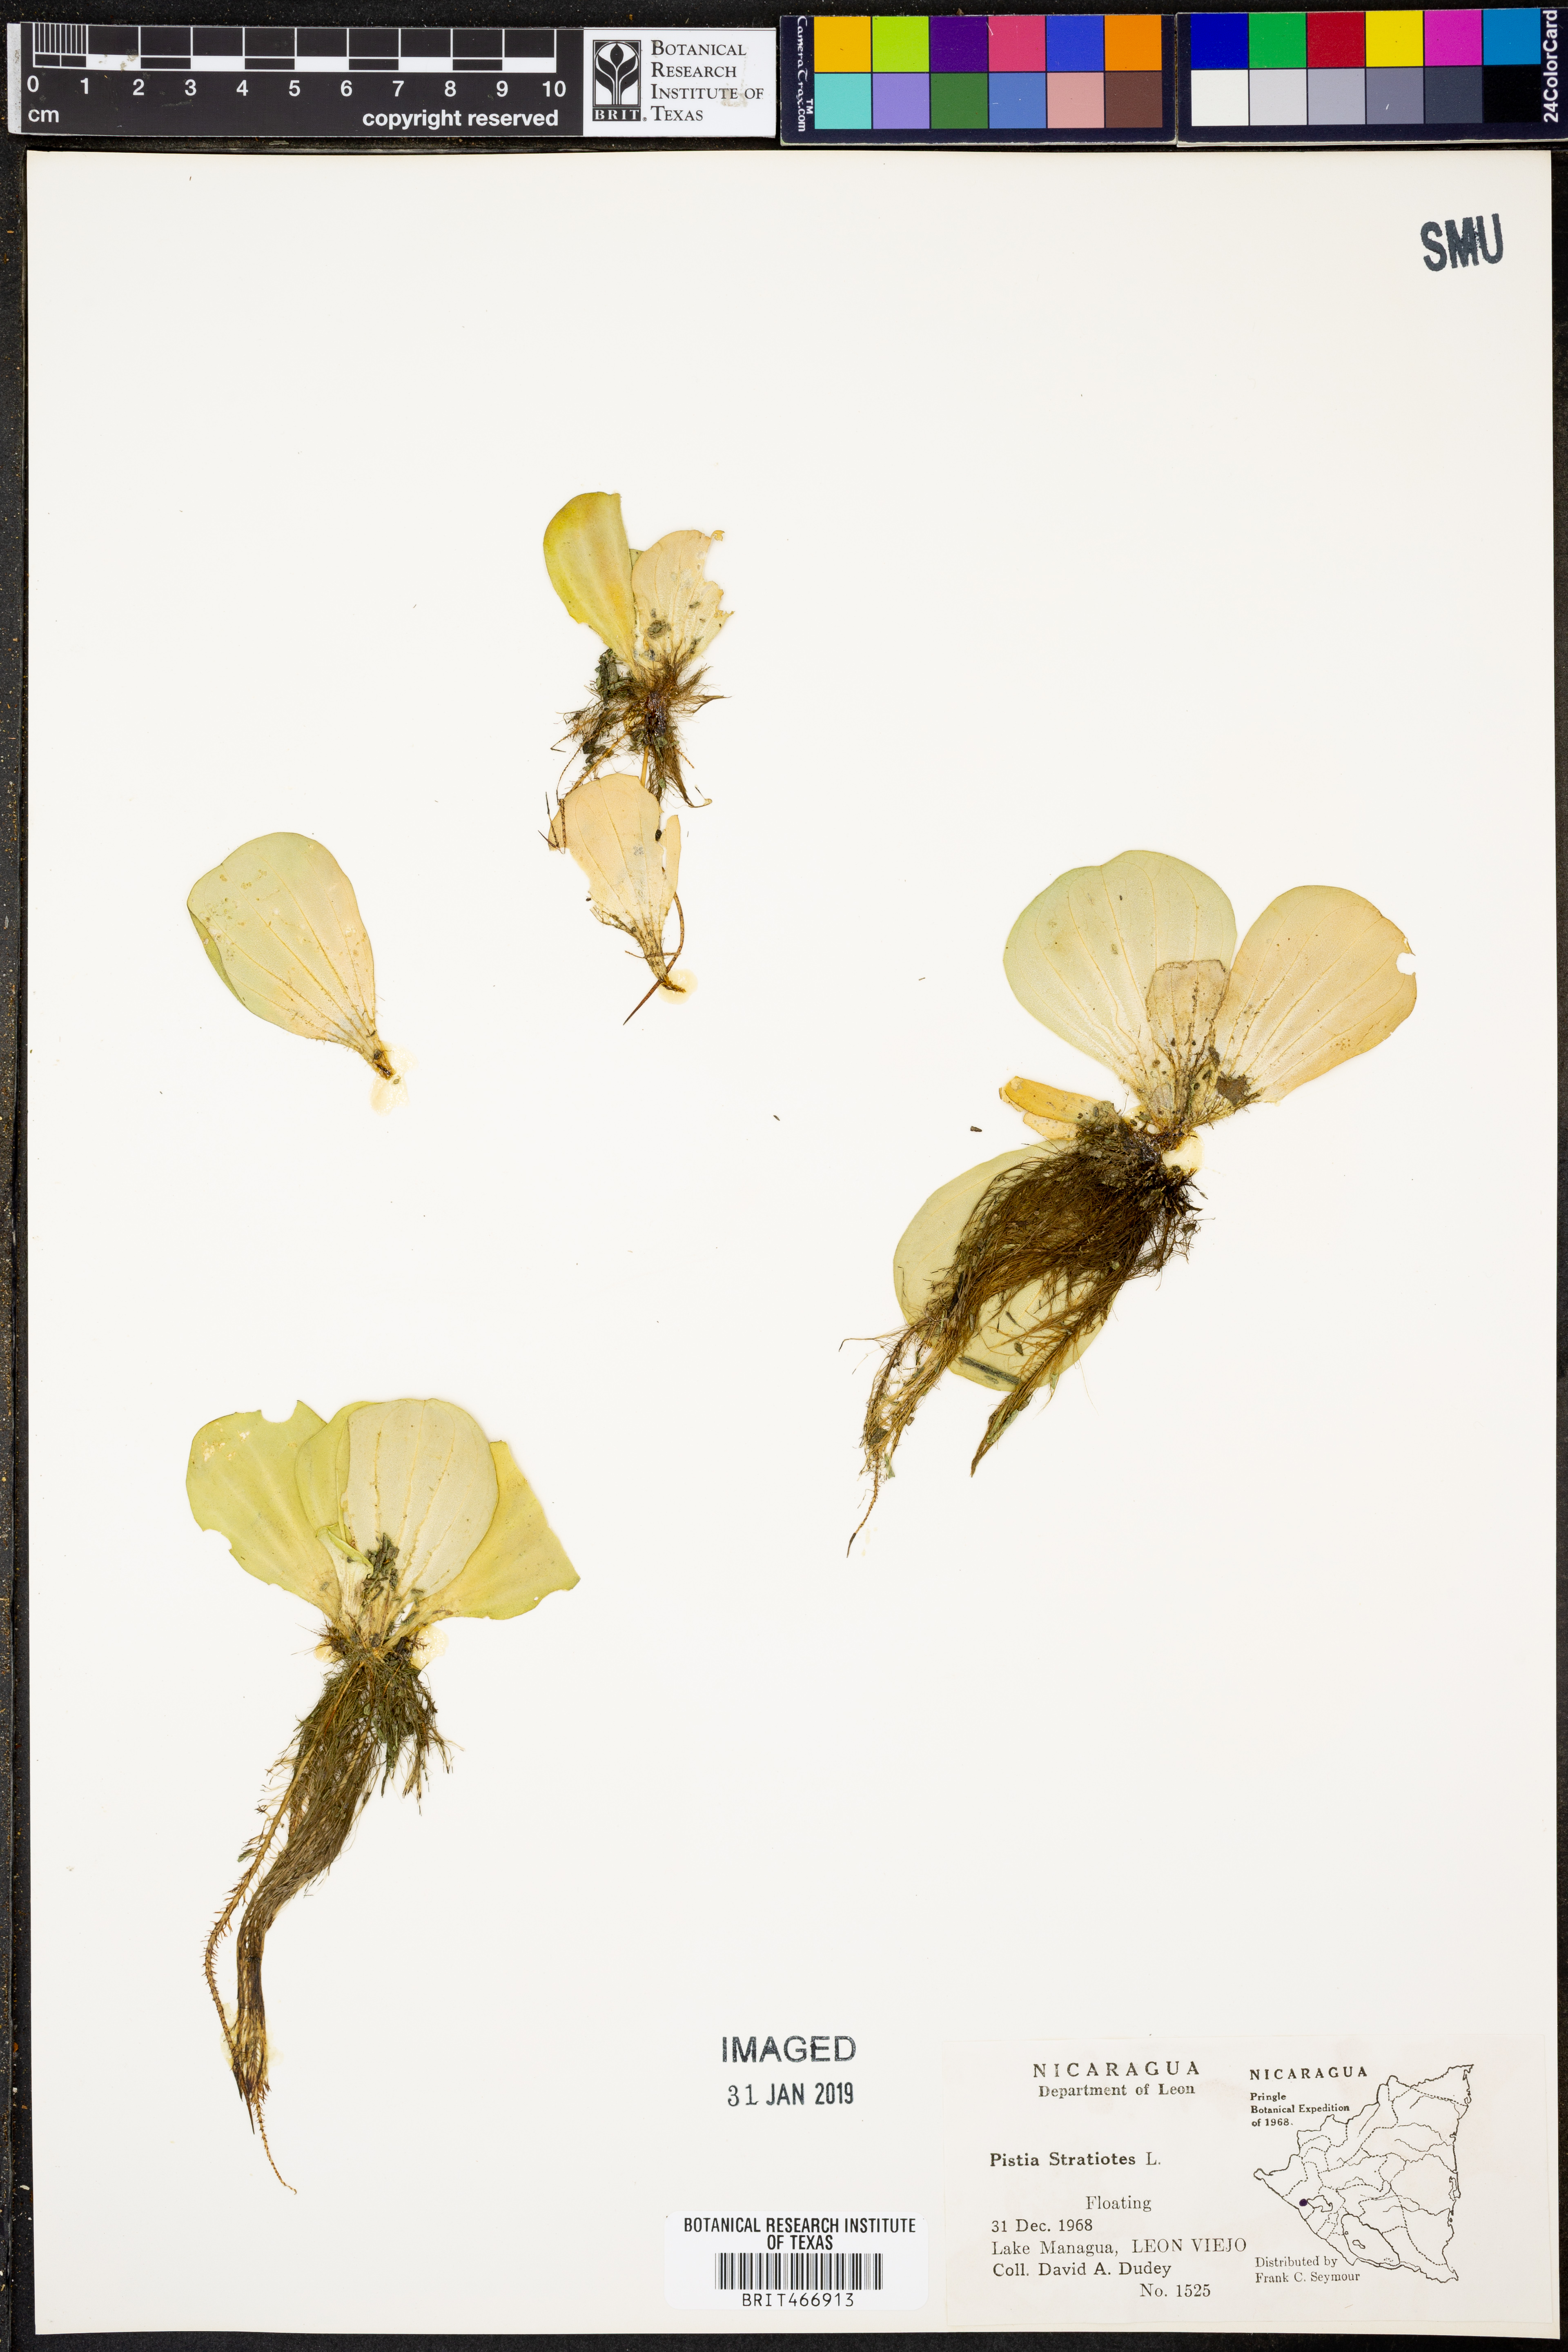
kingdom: Plantae
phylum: Tracheophyta
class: Liliopsida
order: Alismatales
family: Araceae
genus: Pistia
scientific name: Pistia stratiotes
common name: Water lettuce
